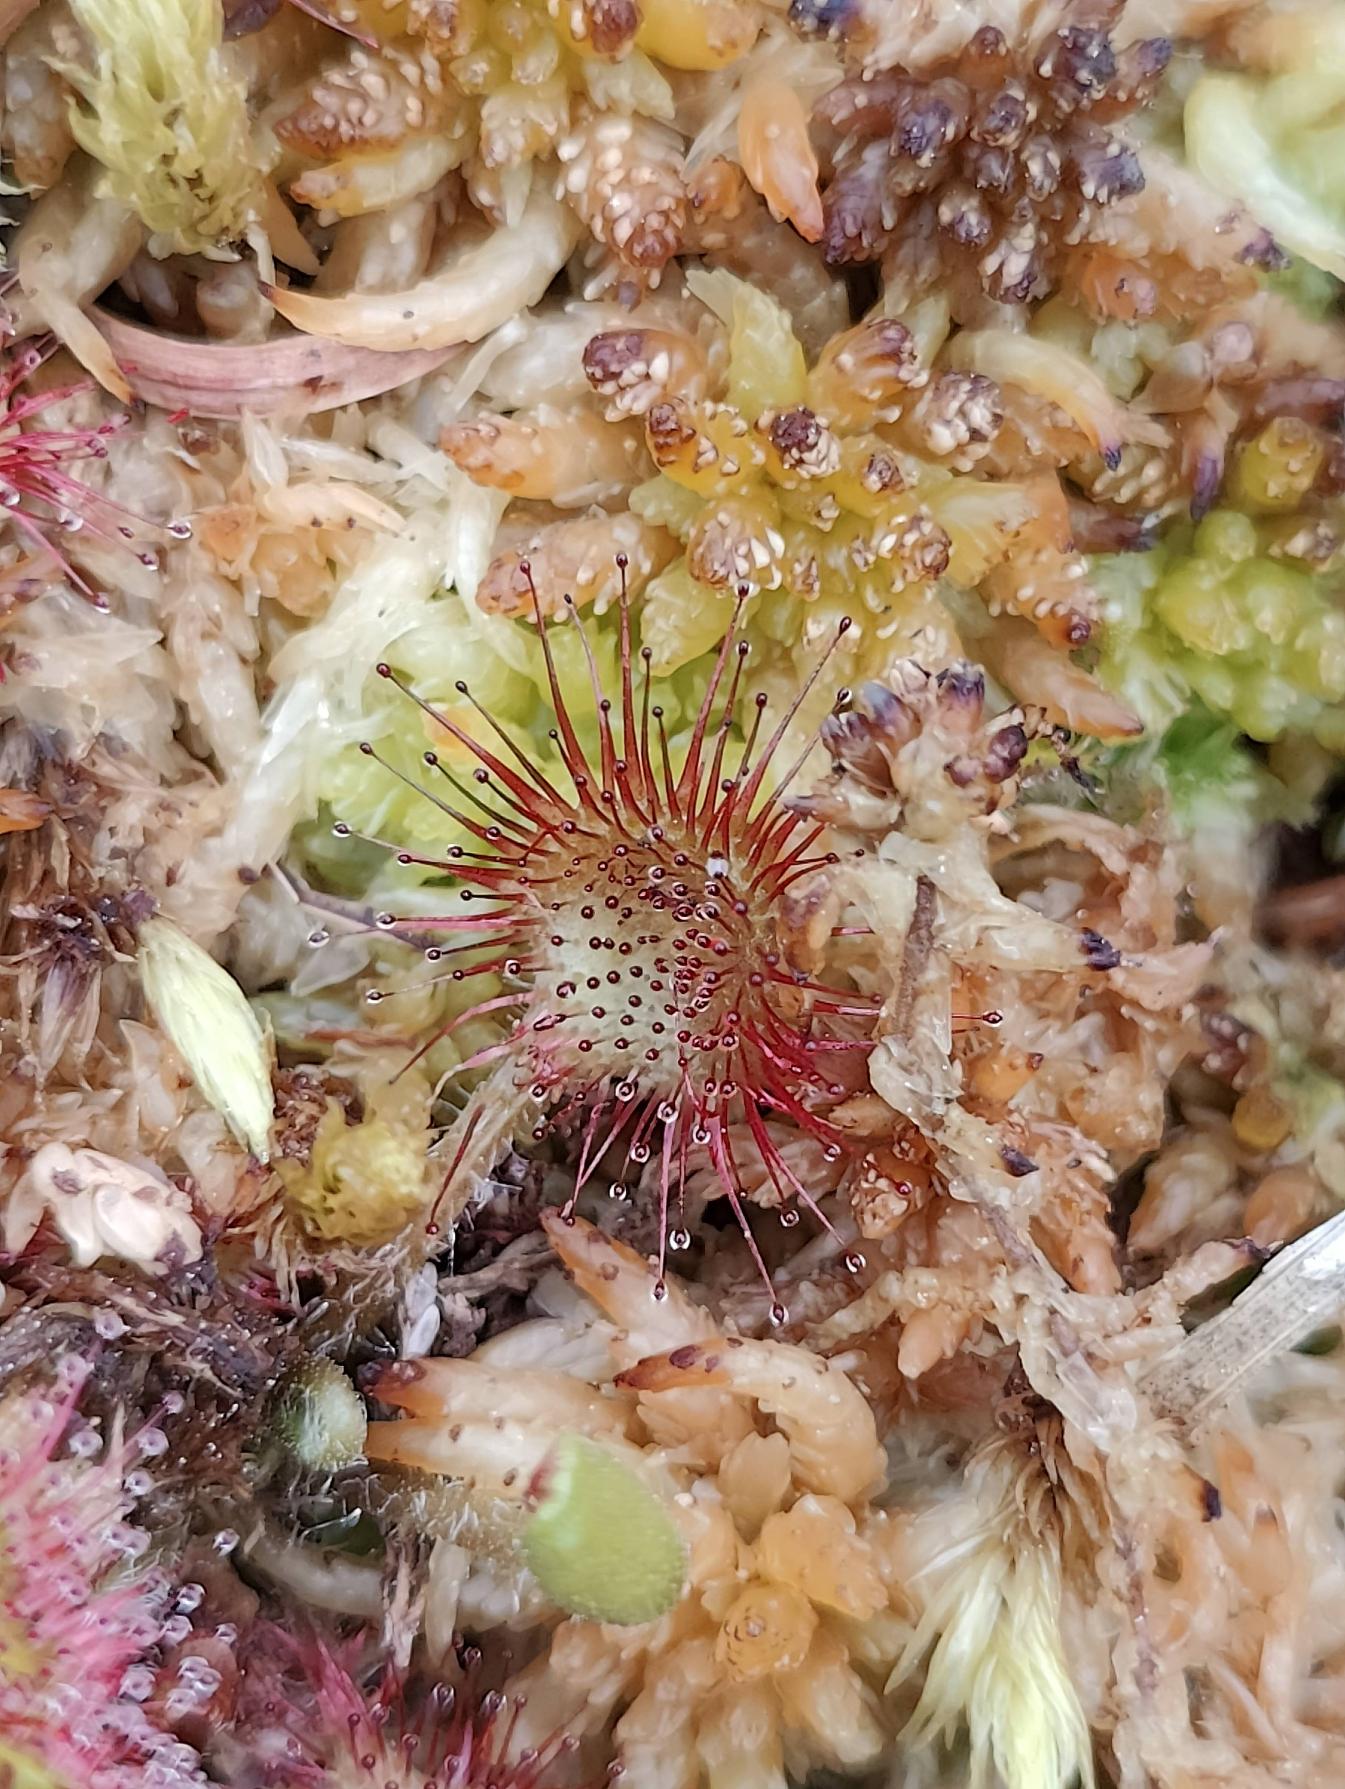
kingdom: Plantae
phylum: Tracheophyta
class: Magnoliopsida
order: Caryophyllales
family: Droseraceae
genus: Drosera
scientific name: Drosera rotundifolia
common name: Rundbladet soldug
